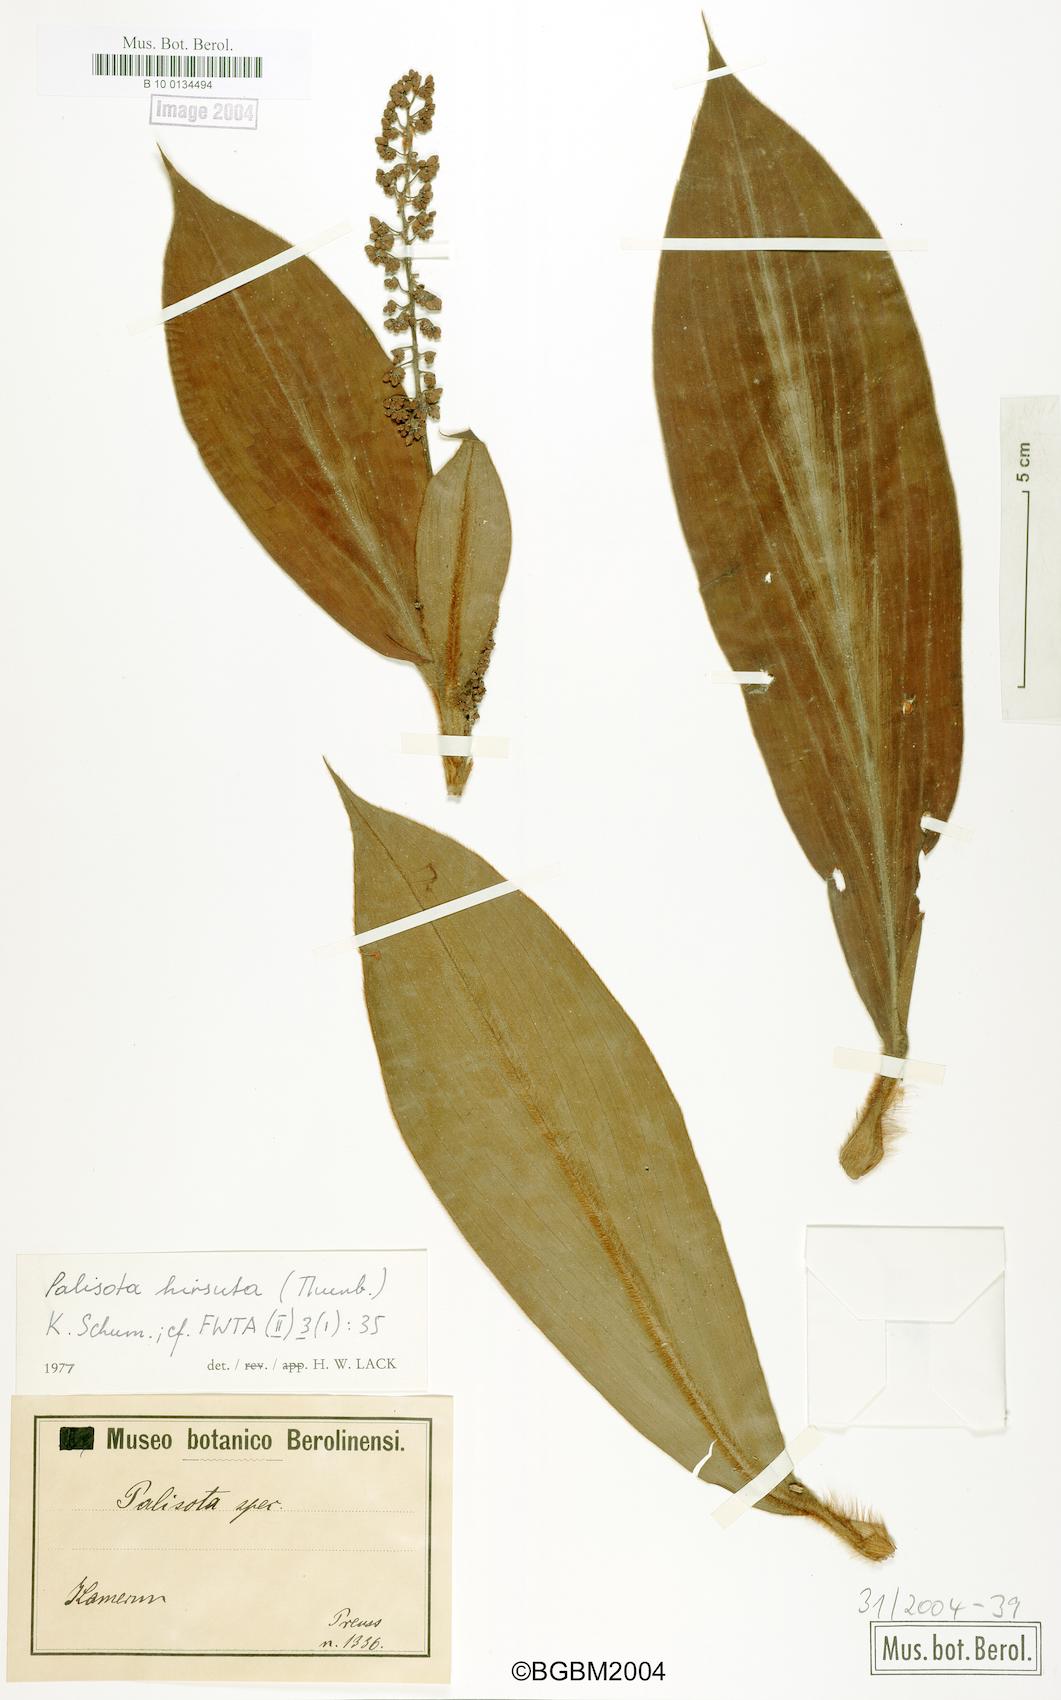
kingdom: Plantae
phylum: Tracheophyta
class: Liliopsida
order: Commelinales
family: Commelinaceae
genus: Palisota
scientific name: Palisota ambigua
